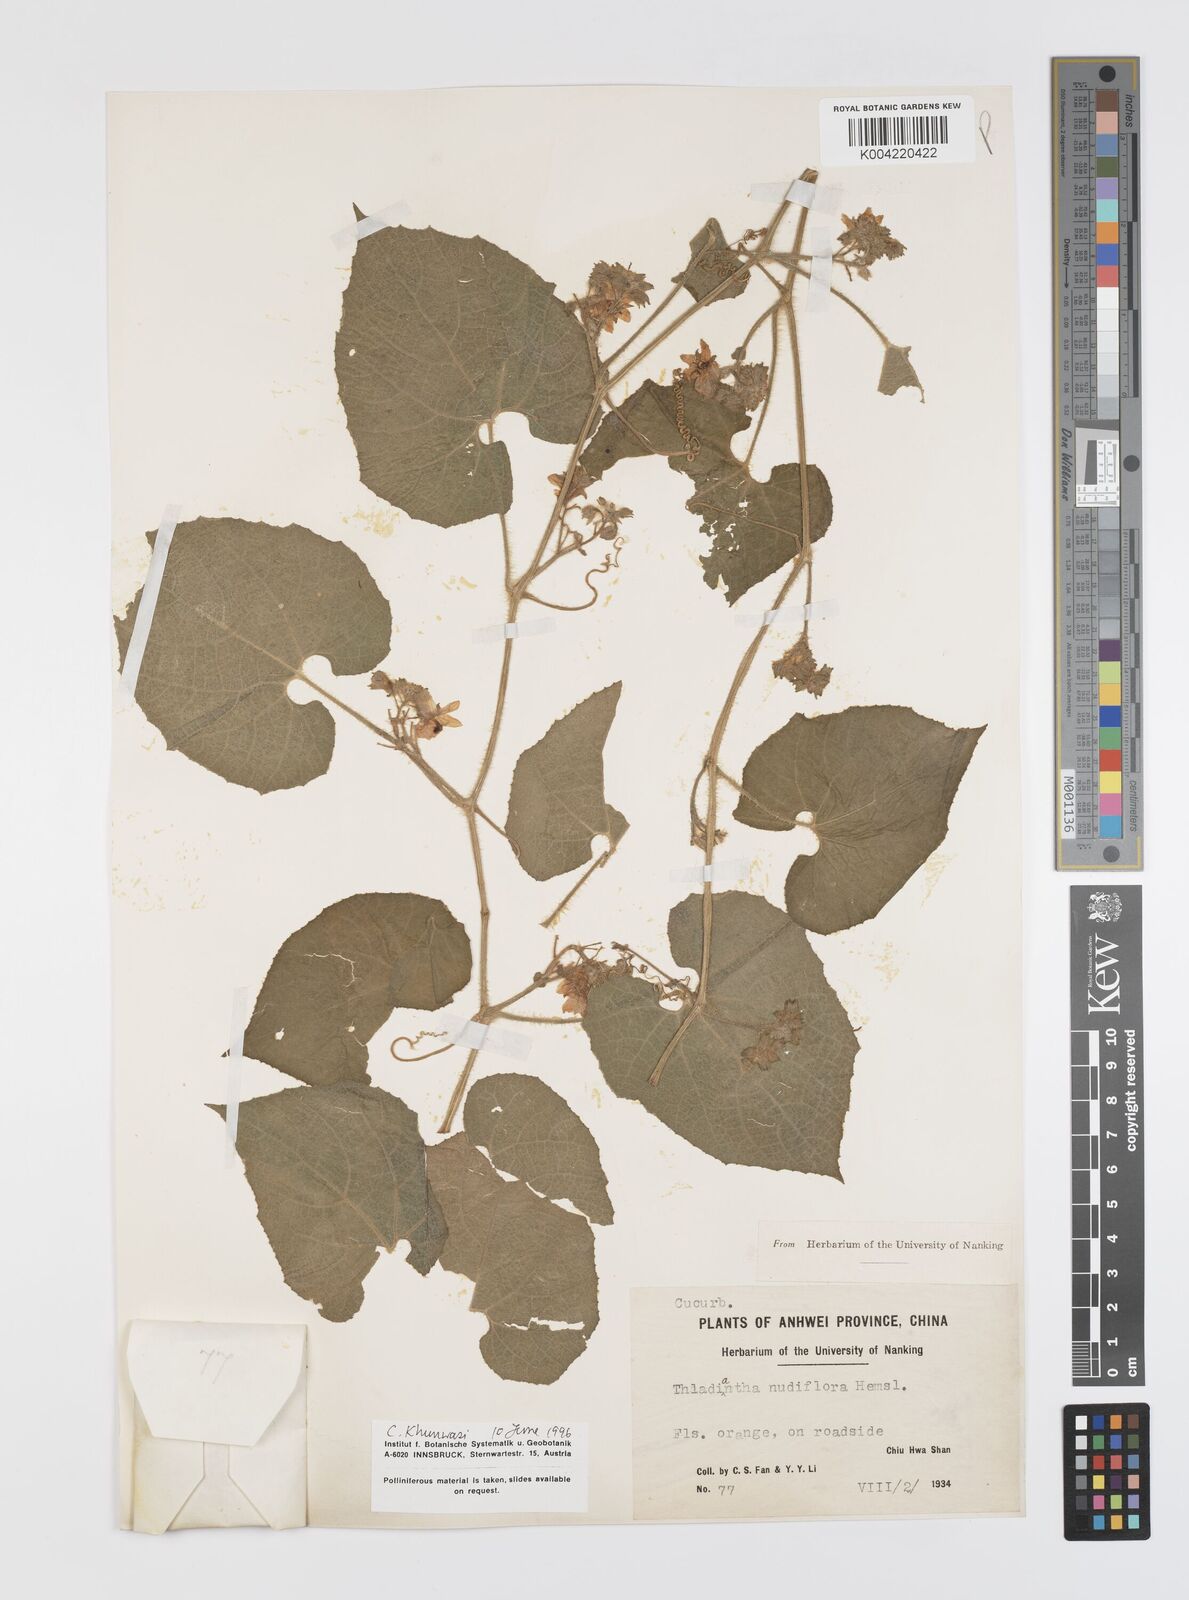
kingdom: Plantae
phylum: Tracheophyta
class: Magnoliopsida
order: Cucurbitales
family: Cucurbitaceae
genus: Thladiantha
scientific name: Thladiantha nudiflora
